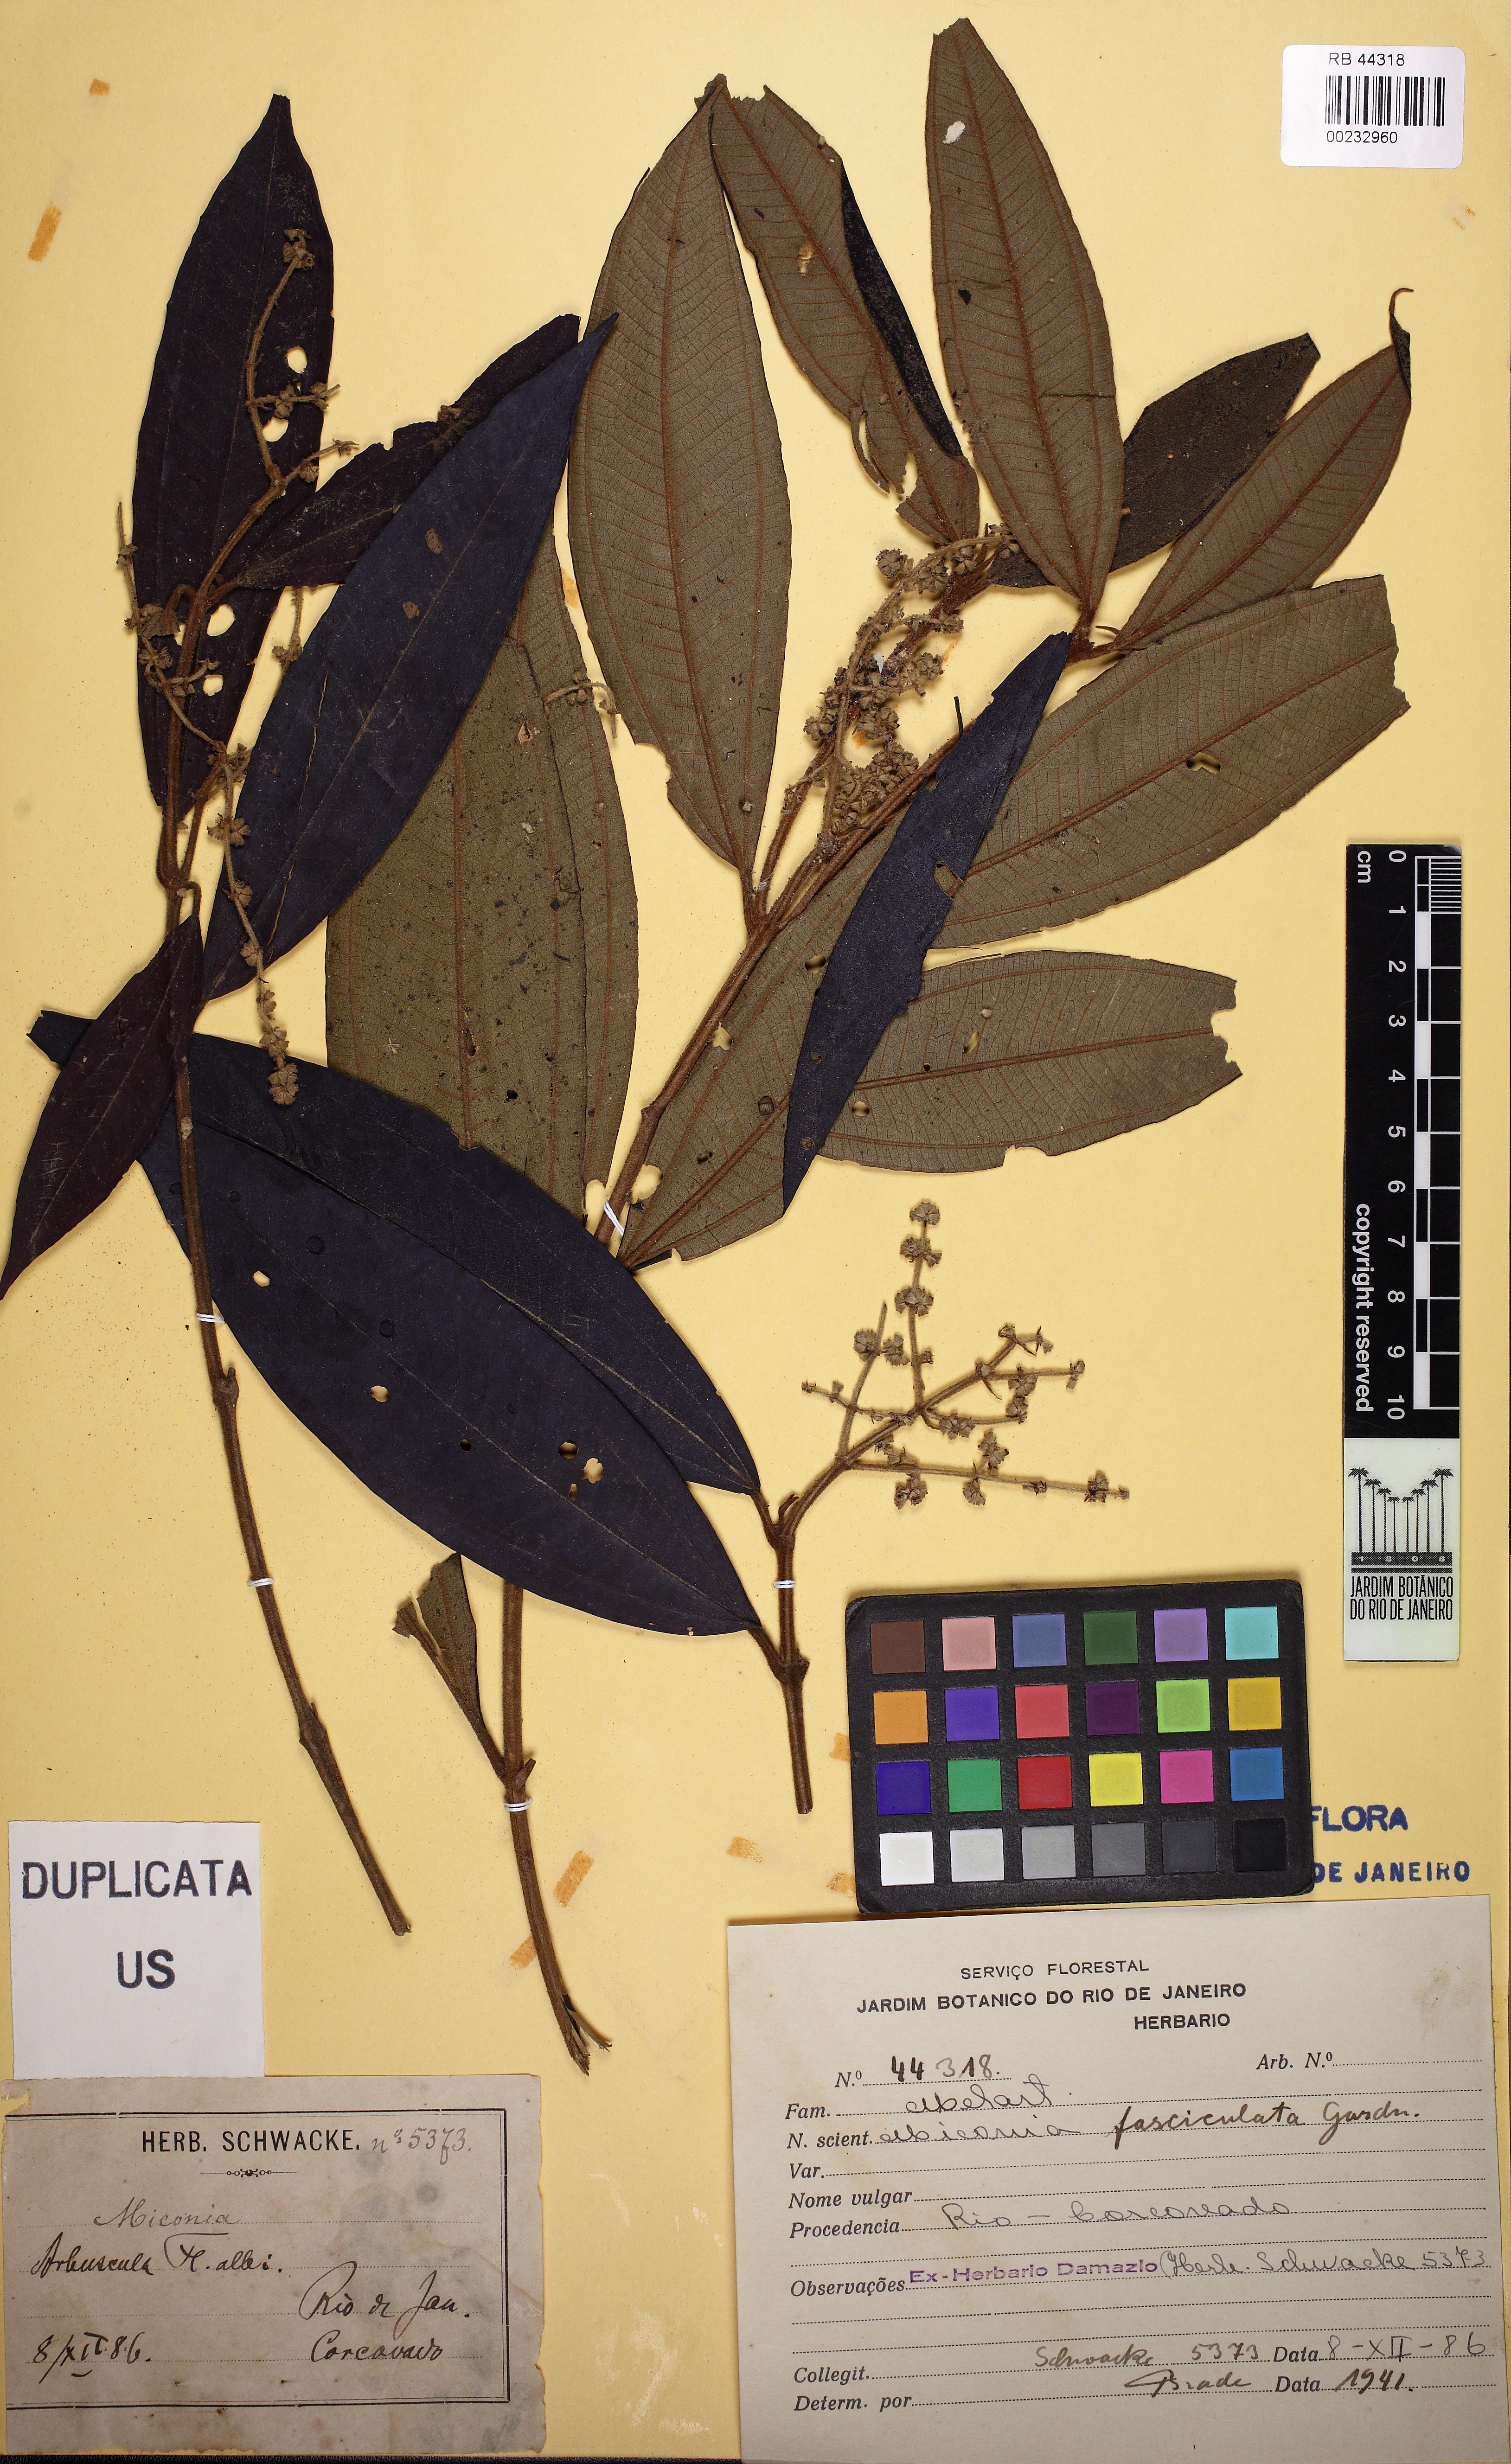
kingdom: Plantae
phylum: Tracheophyta
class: Magnoliopsida
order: Myrtales
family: Melastomataceae
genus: Miconia
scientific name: Miconia fasciculata
